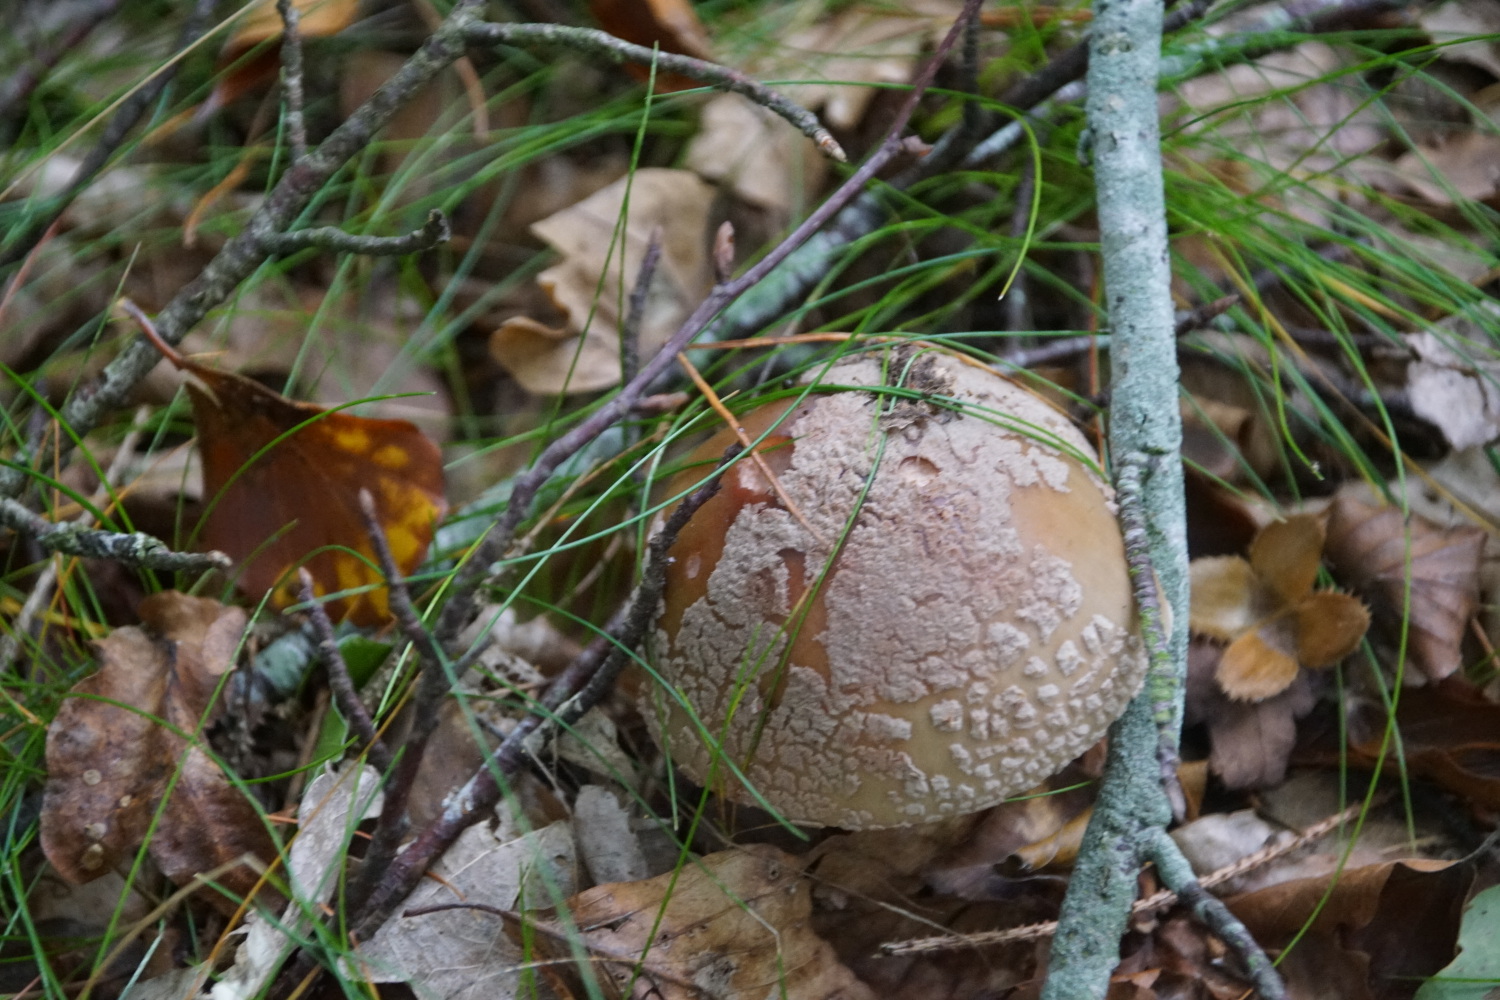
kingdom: Fungi
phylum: Basidiomycota
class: Agaricomycetes
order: Agaricales
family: Amanitaceae
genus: Amanita
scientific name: Amanita rubescens
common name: rødmende fluesvamp
